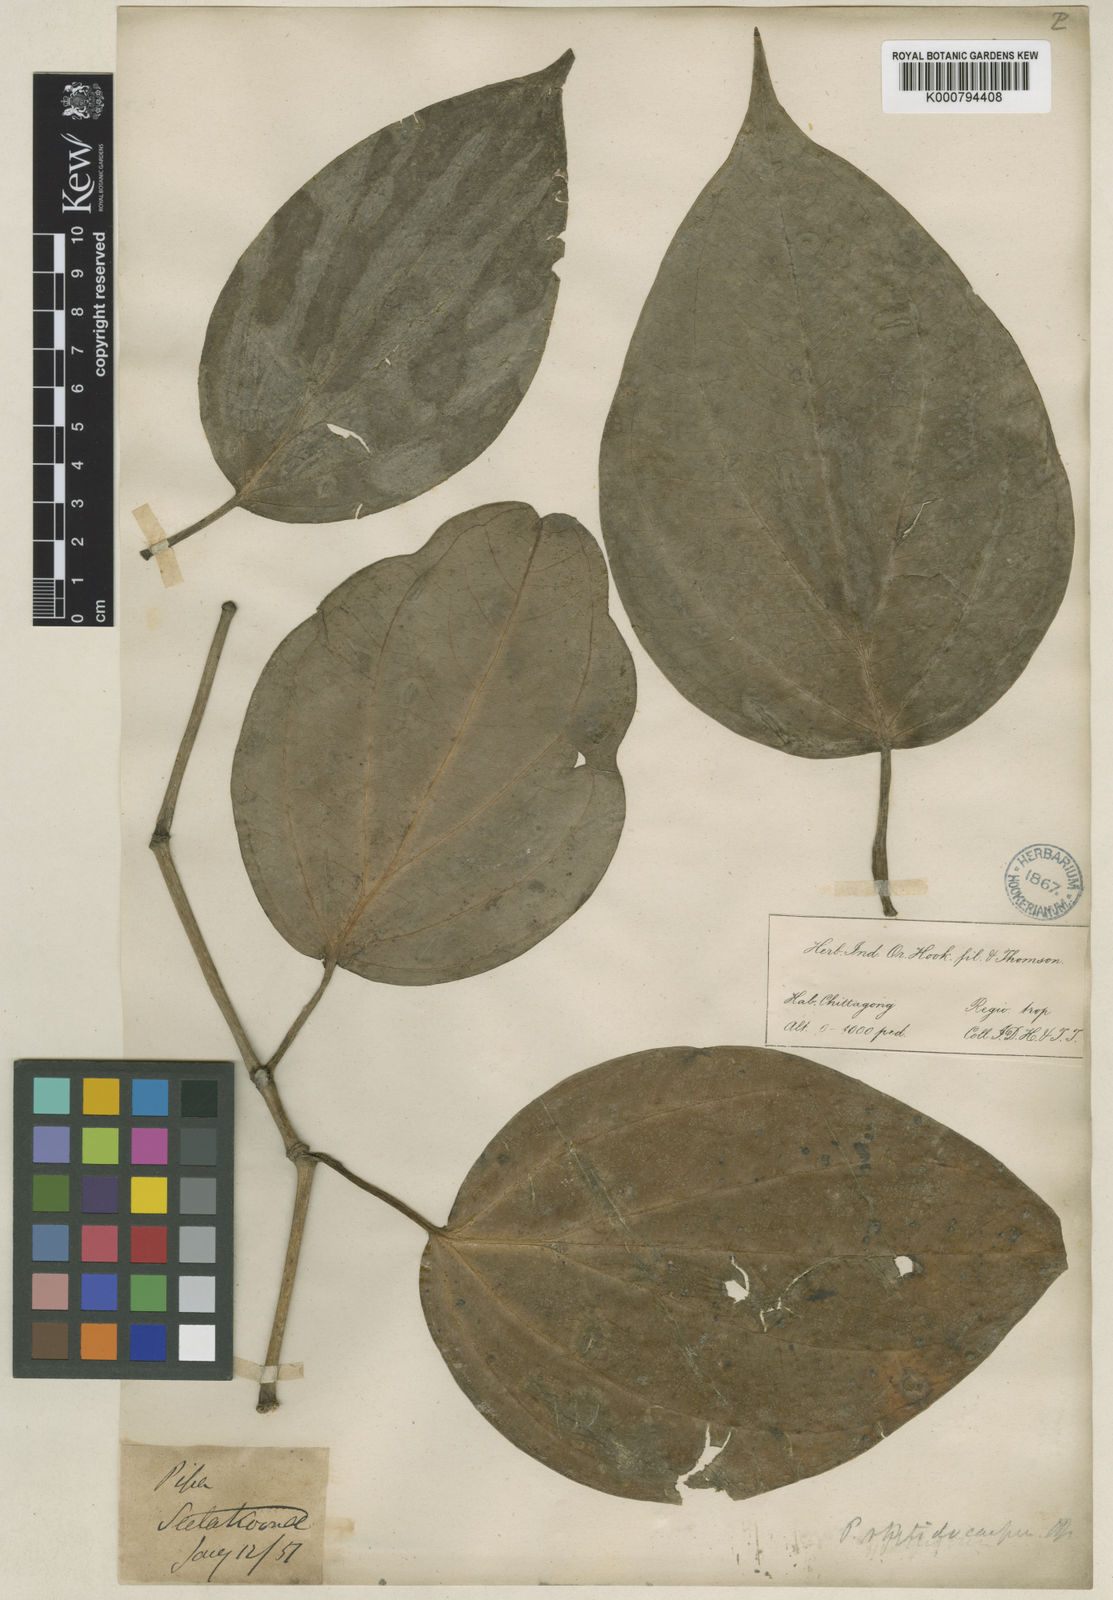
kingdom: Plantae
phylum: Tracheophyta
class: Magnoliopsida
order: Piperales
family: Piperaceae
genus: Piper
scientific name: Piper leptostachyum
